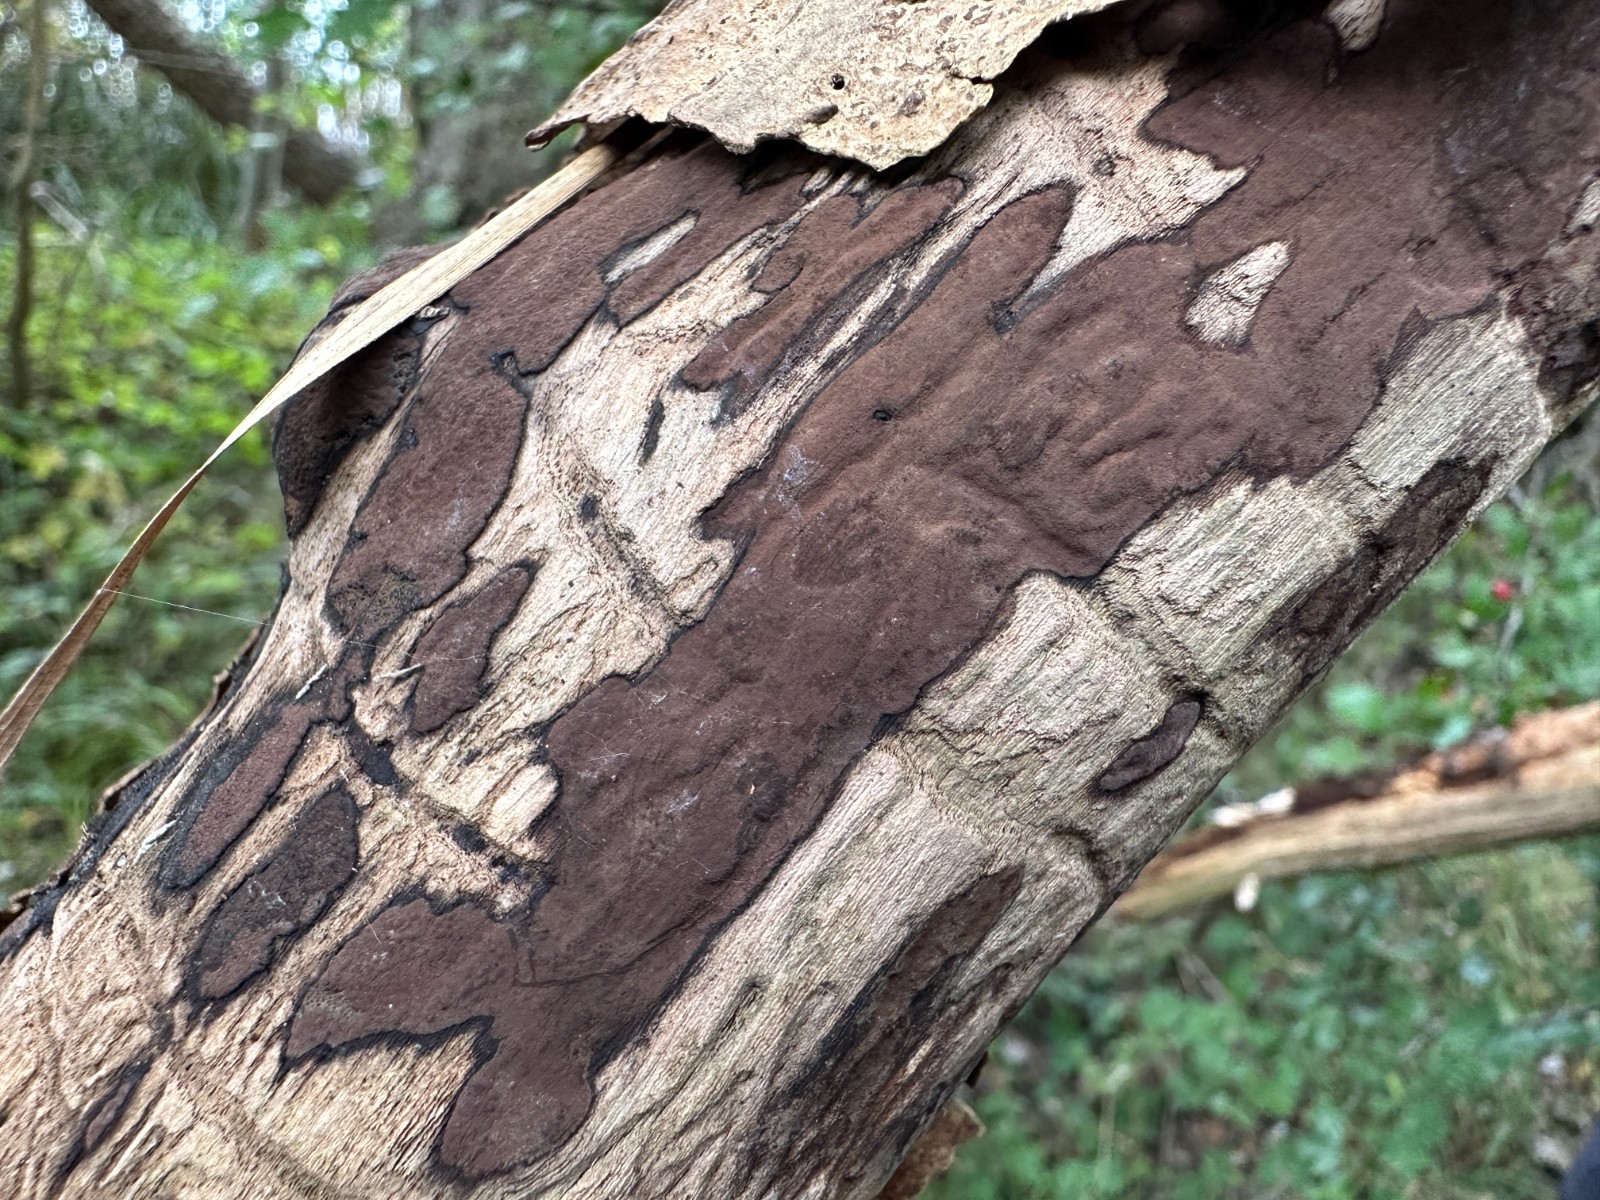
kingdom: Fungi
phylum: Ascomycota
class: Sordariomycetes
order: Xylariales
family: Hypoxylaceae
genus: Hypoxylon
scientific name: Hypoxylon petriniae
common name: nedsænket kulbær
